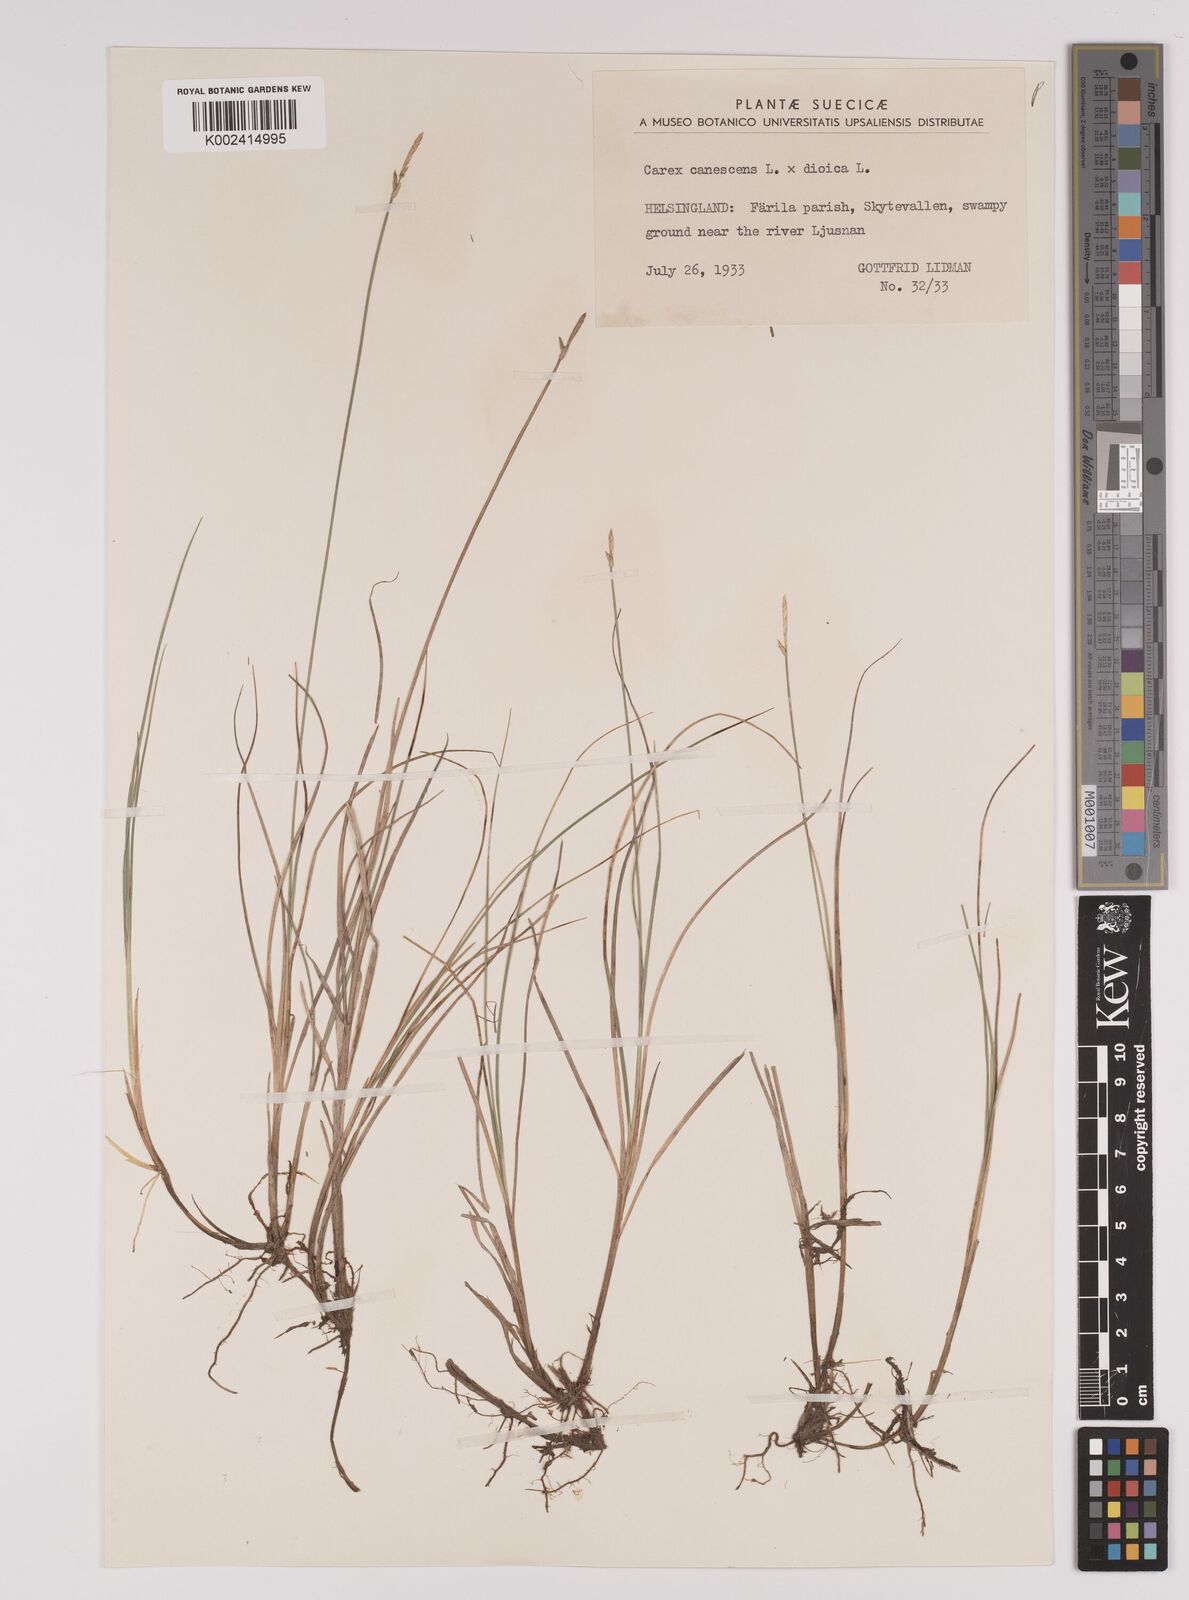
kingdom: Plantae
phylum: Tracheophyta
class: Liliopsida
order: Poales
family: Cyperaceae
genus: Carex
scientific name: Carex dioica
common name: Dioecious sedge
